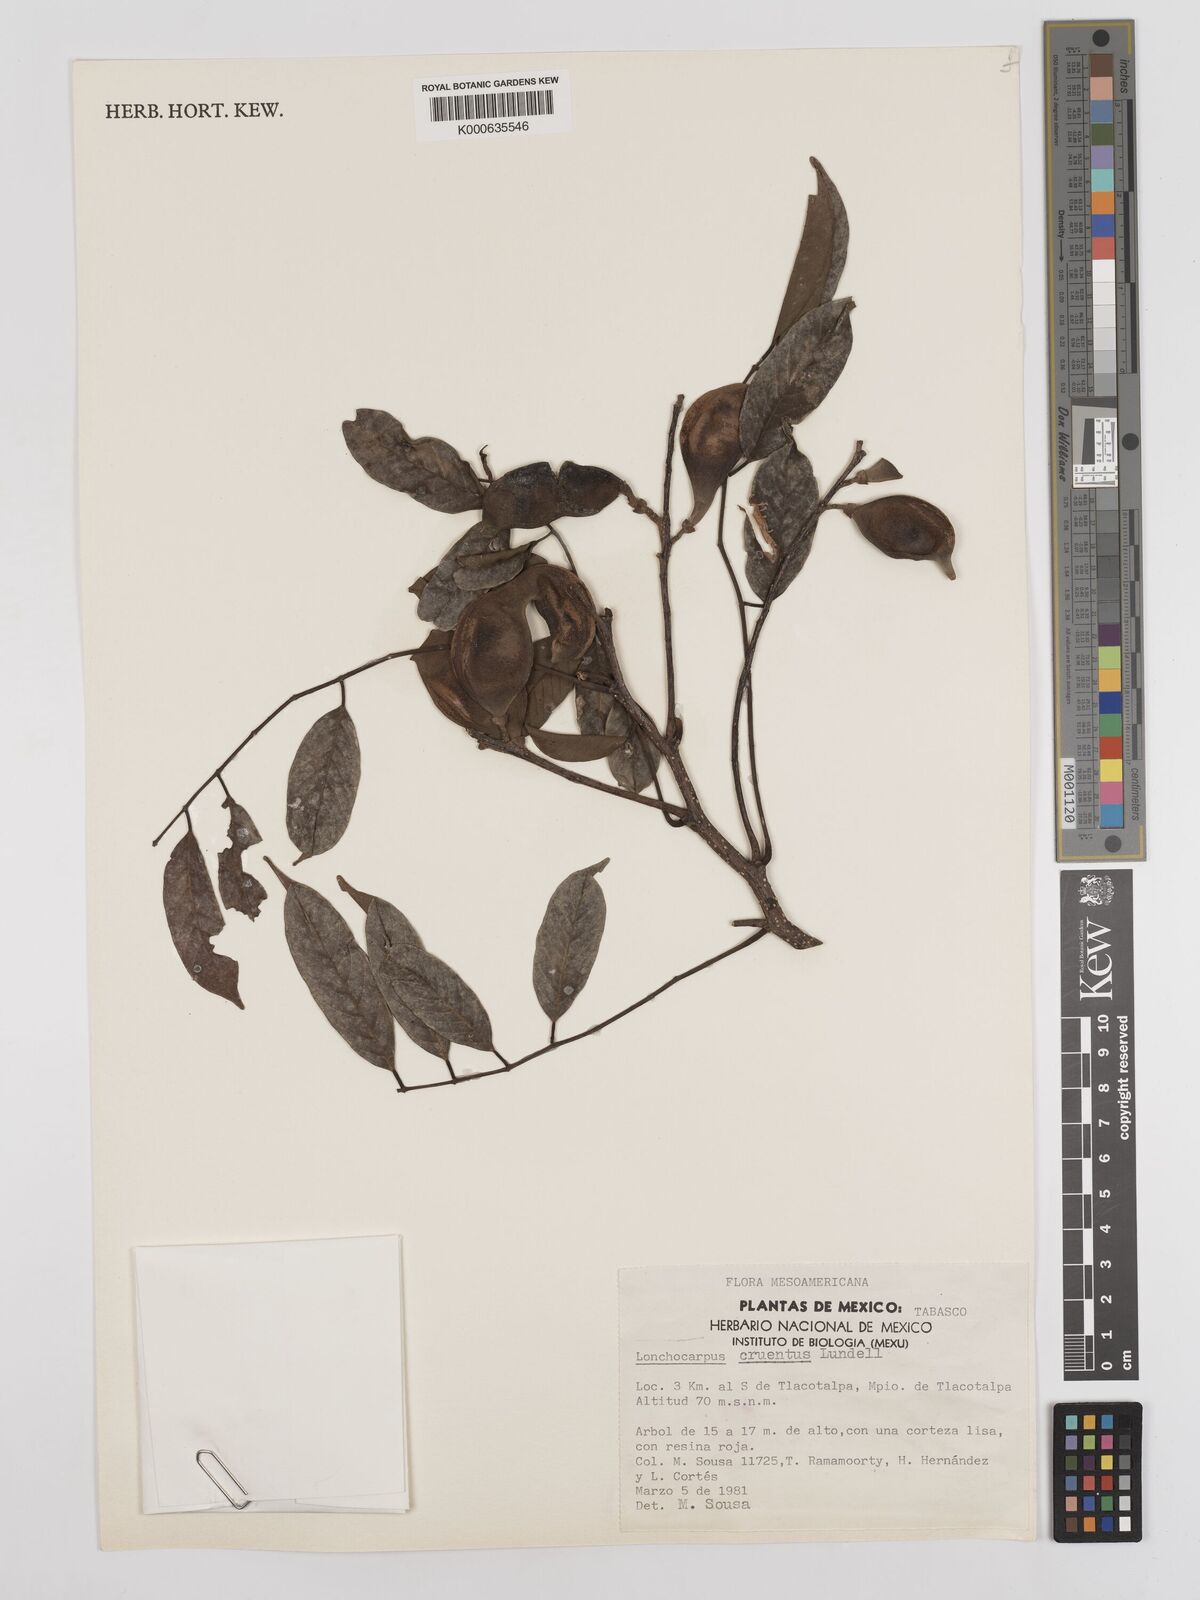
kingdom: Plantae
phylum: Tracheophyta
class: Magnoliopsida
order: Fabales
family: Fabaceae
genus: Lonchocarpus
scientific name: Lonchocarpus cruentus
